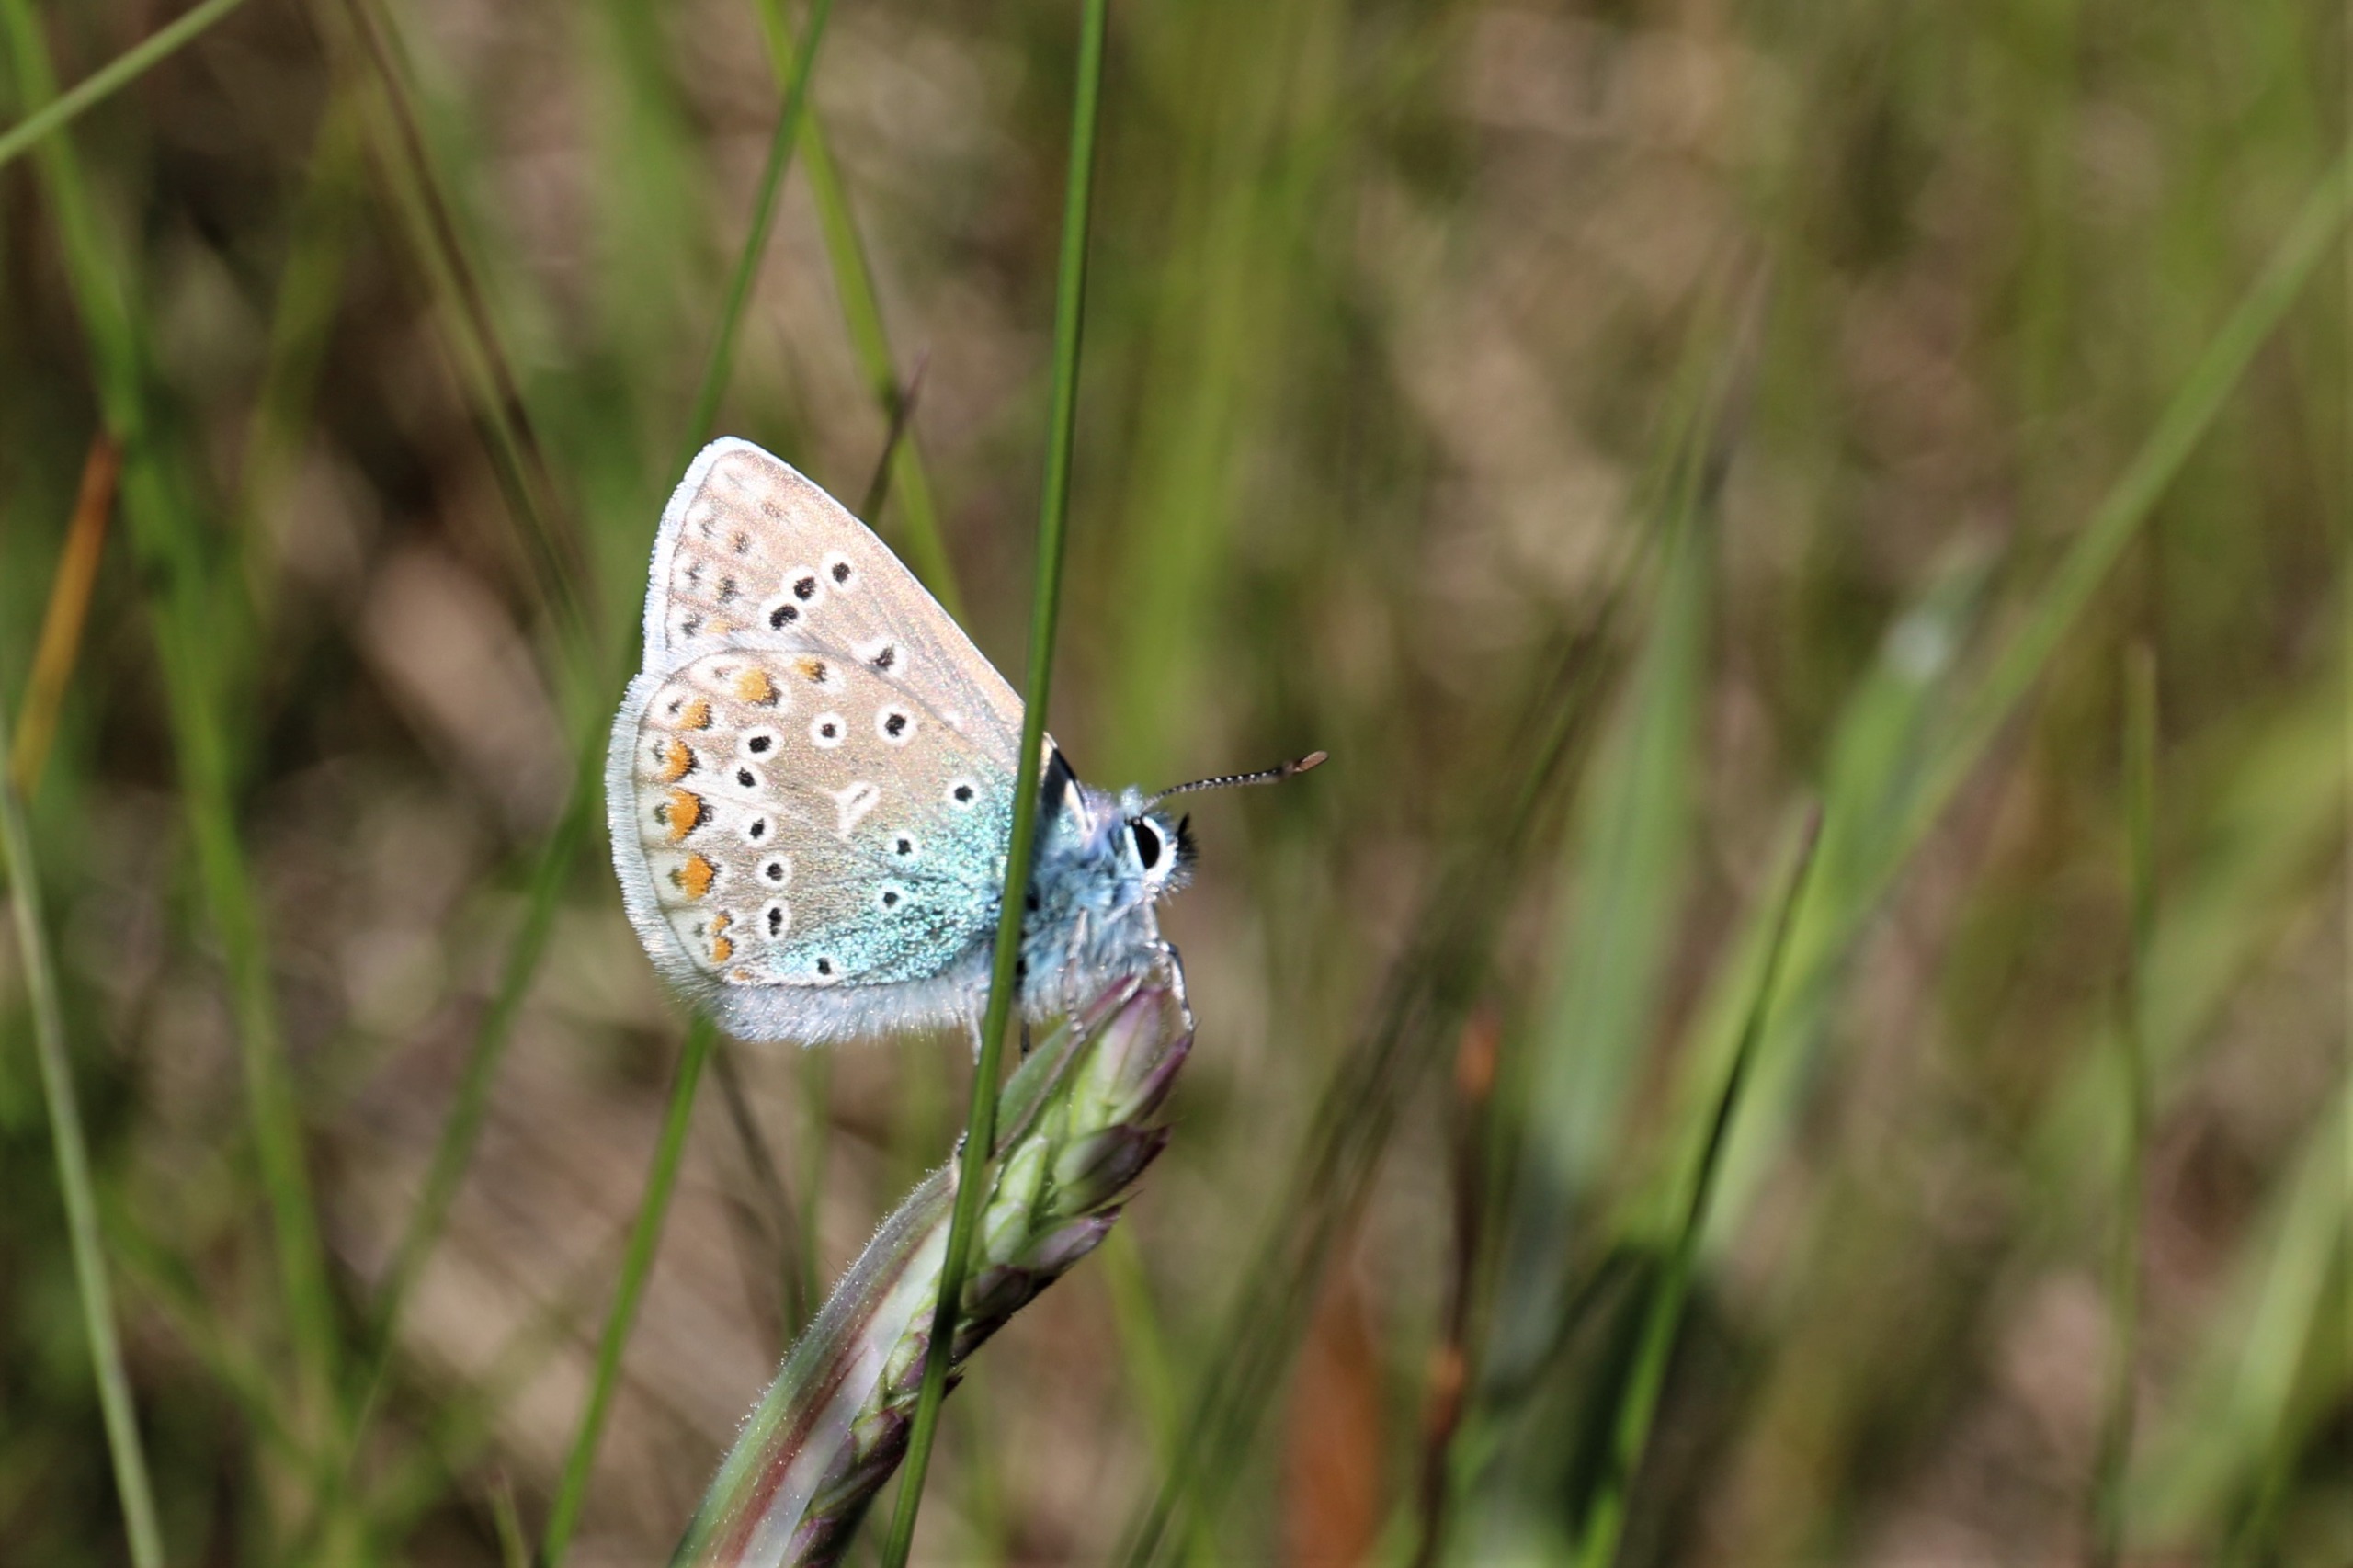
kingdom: Animalia
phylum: Arthropoda
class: Insecta
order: Lepidoptera
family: Lycaenidae
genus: Polyommatus
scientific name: Polyommatus icarus
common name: Almindelig blåfugl
